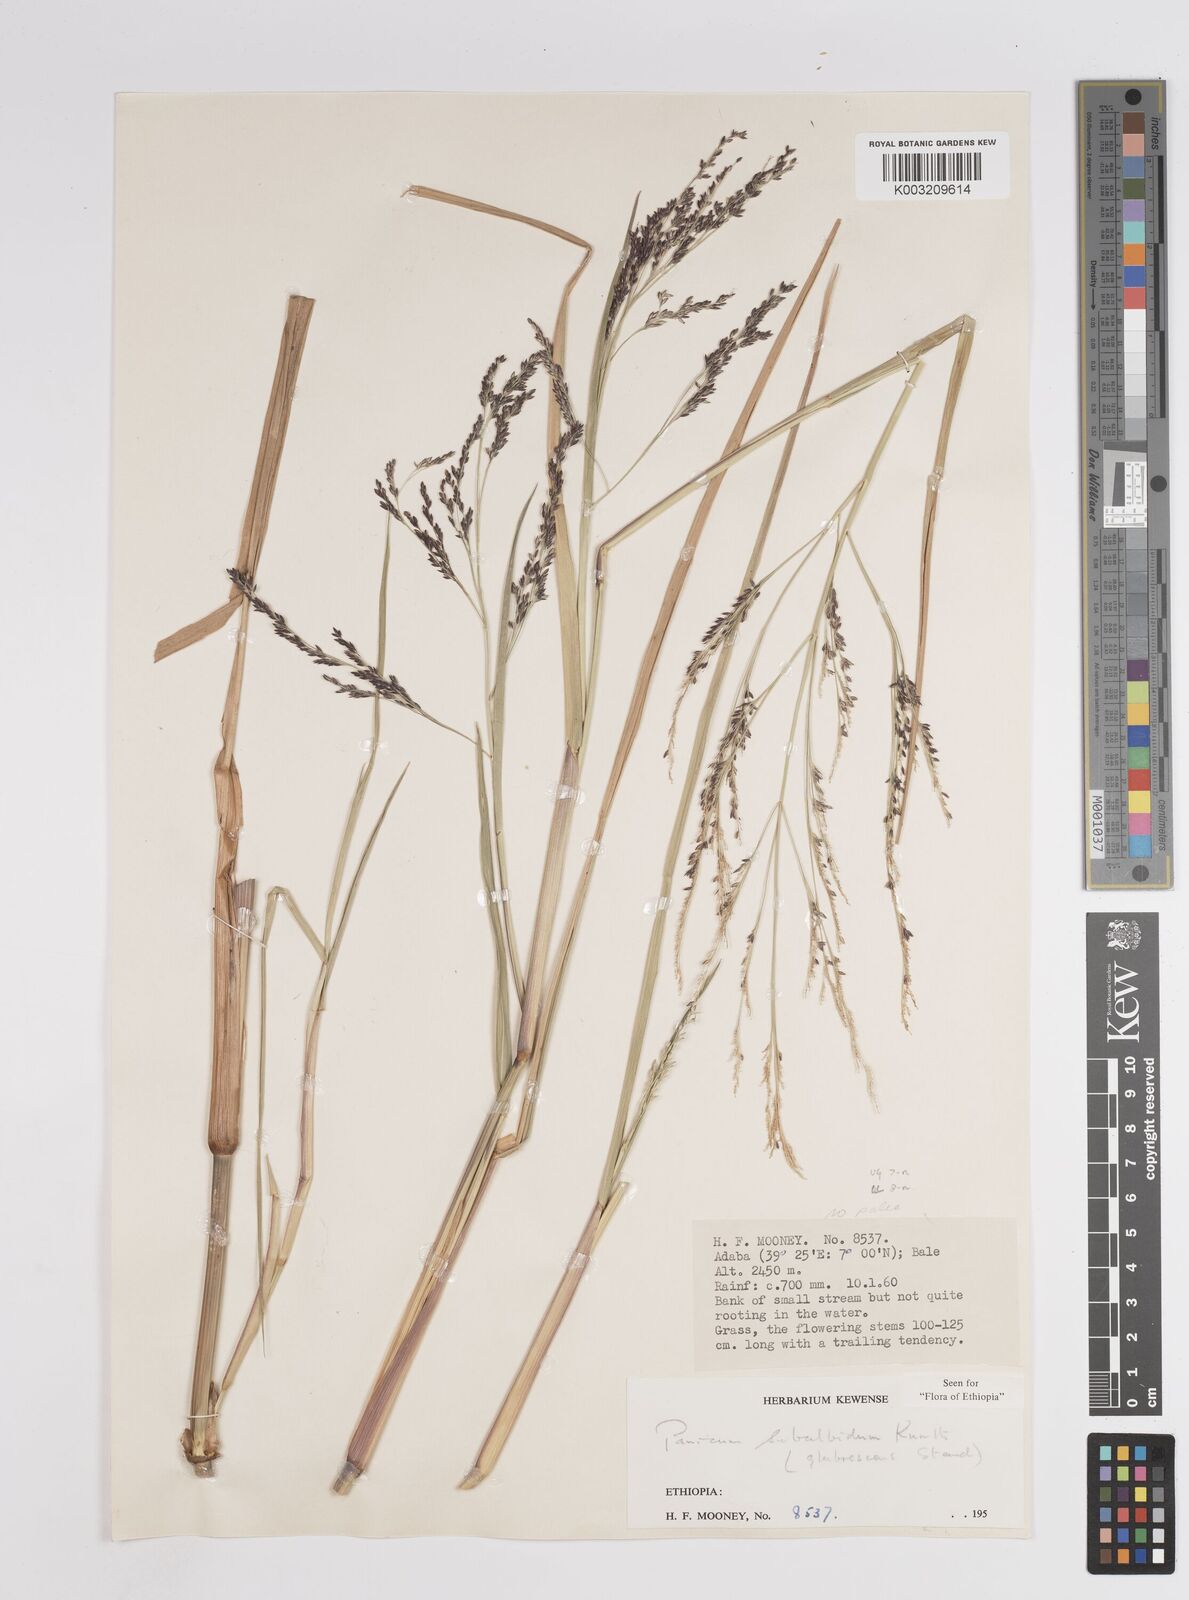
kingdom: Plantae
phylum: Tracheophyta
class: Liliopsida
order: Poales
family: Poaceae
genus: Panicum
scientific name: Panicum subalbidum
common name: Elbow buffalo grass
